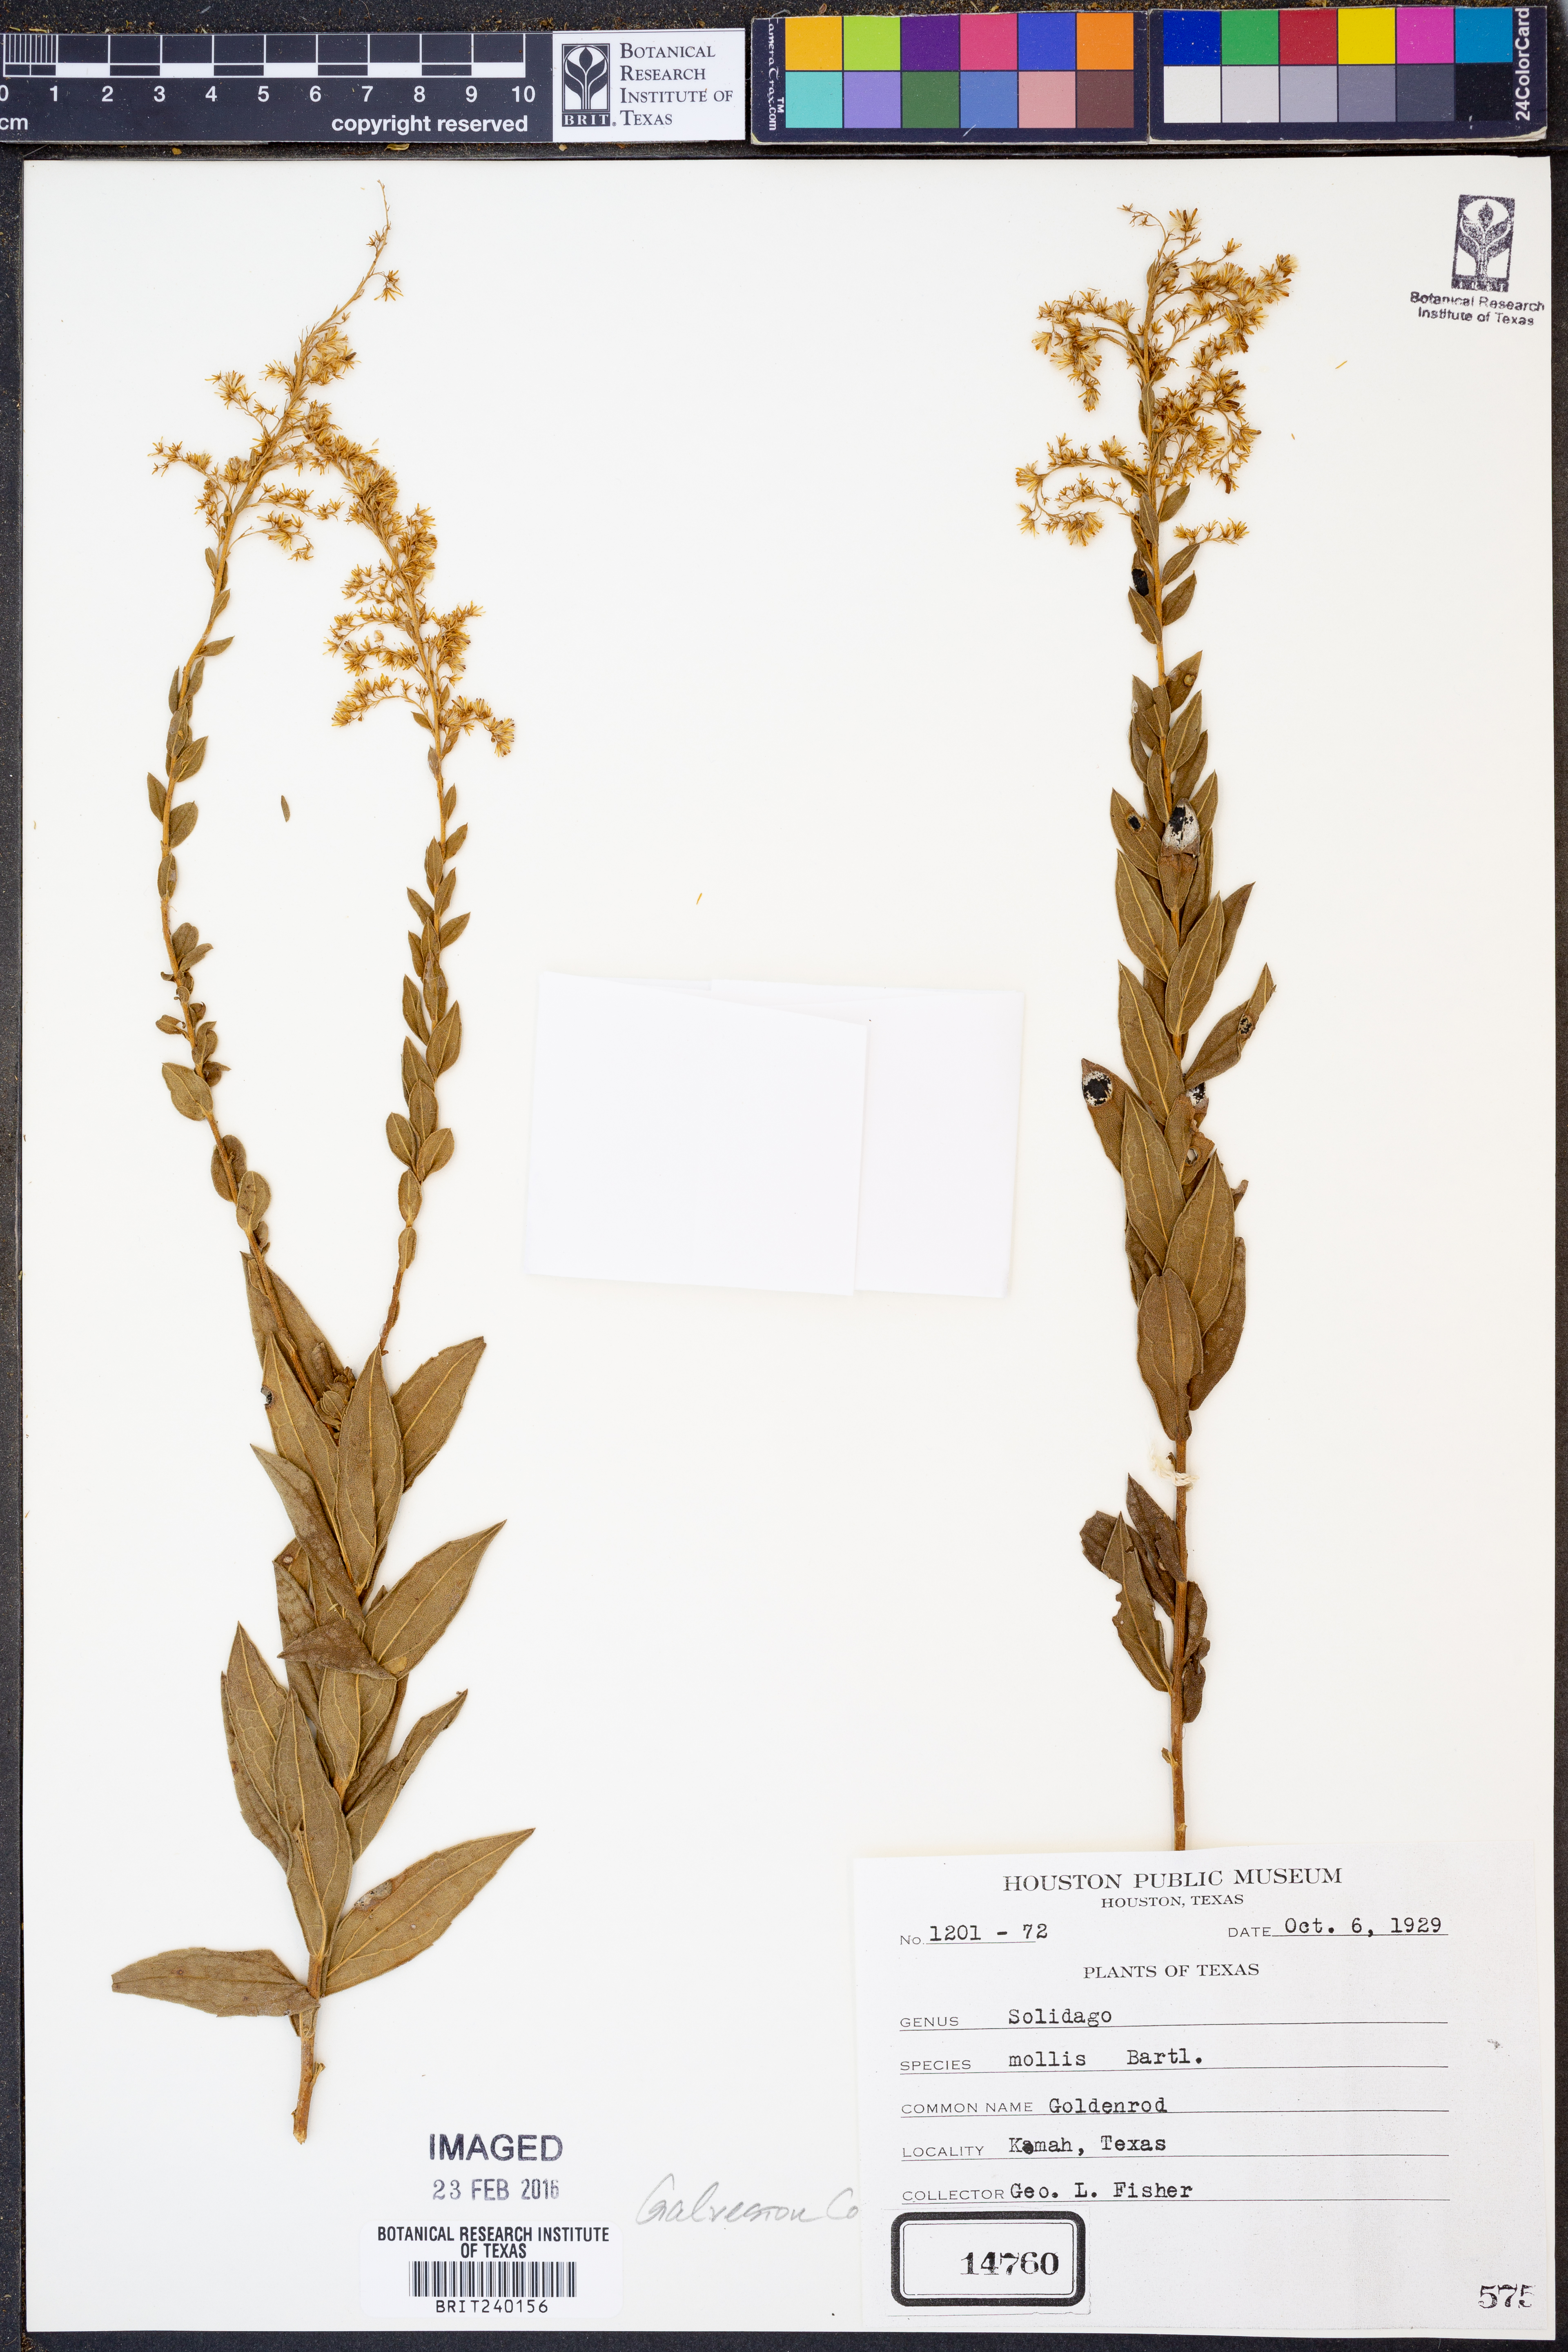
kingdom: Plantae
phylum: Tracheophyta
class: Magnoliopsida
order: Asterales
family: Asteraceae
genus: Solidago
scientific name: Solidago mollis
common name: Ashly goldenrod
